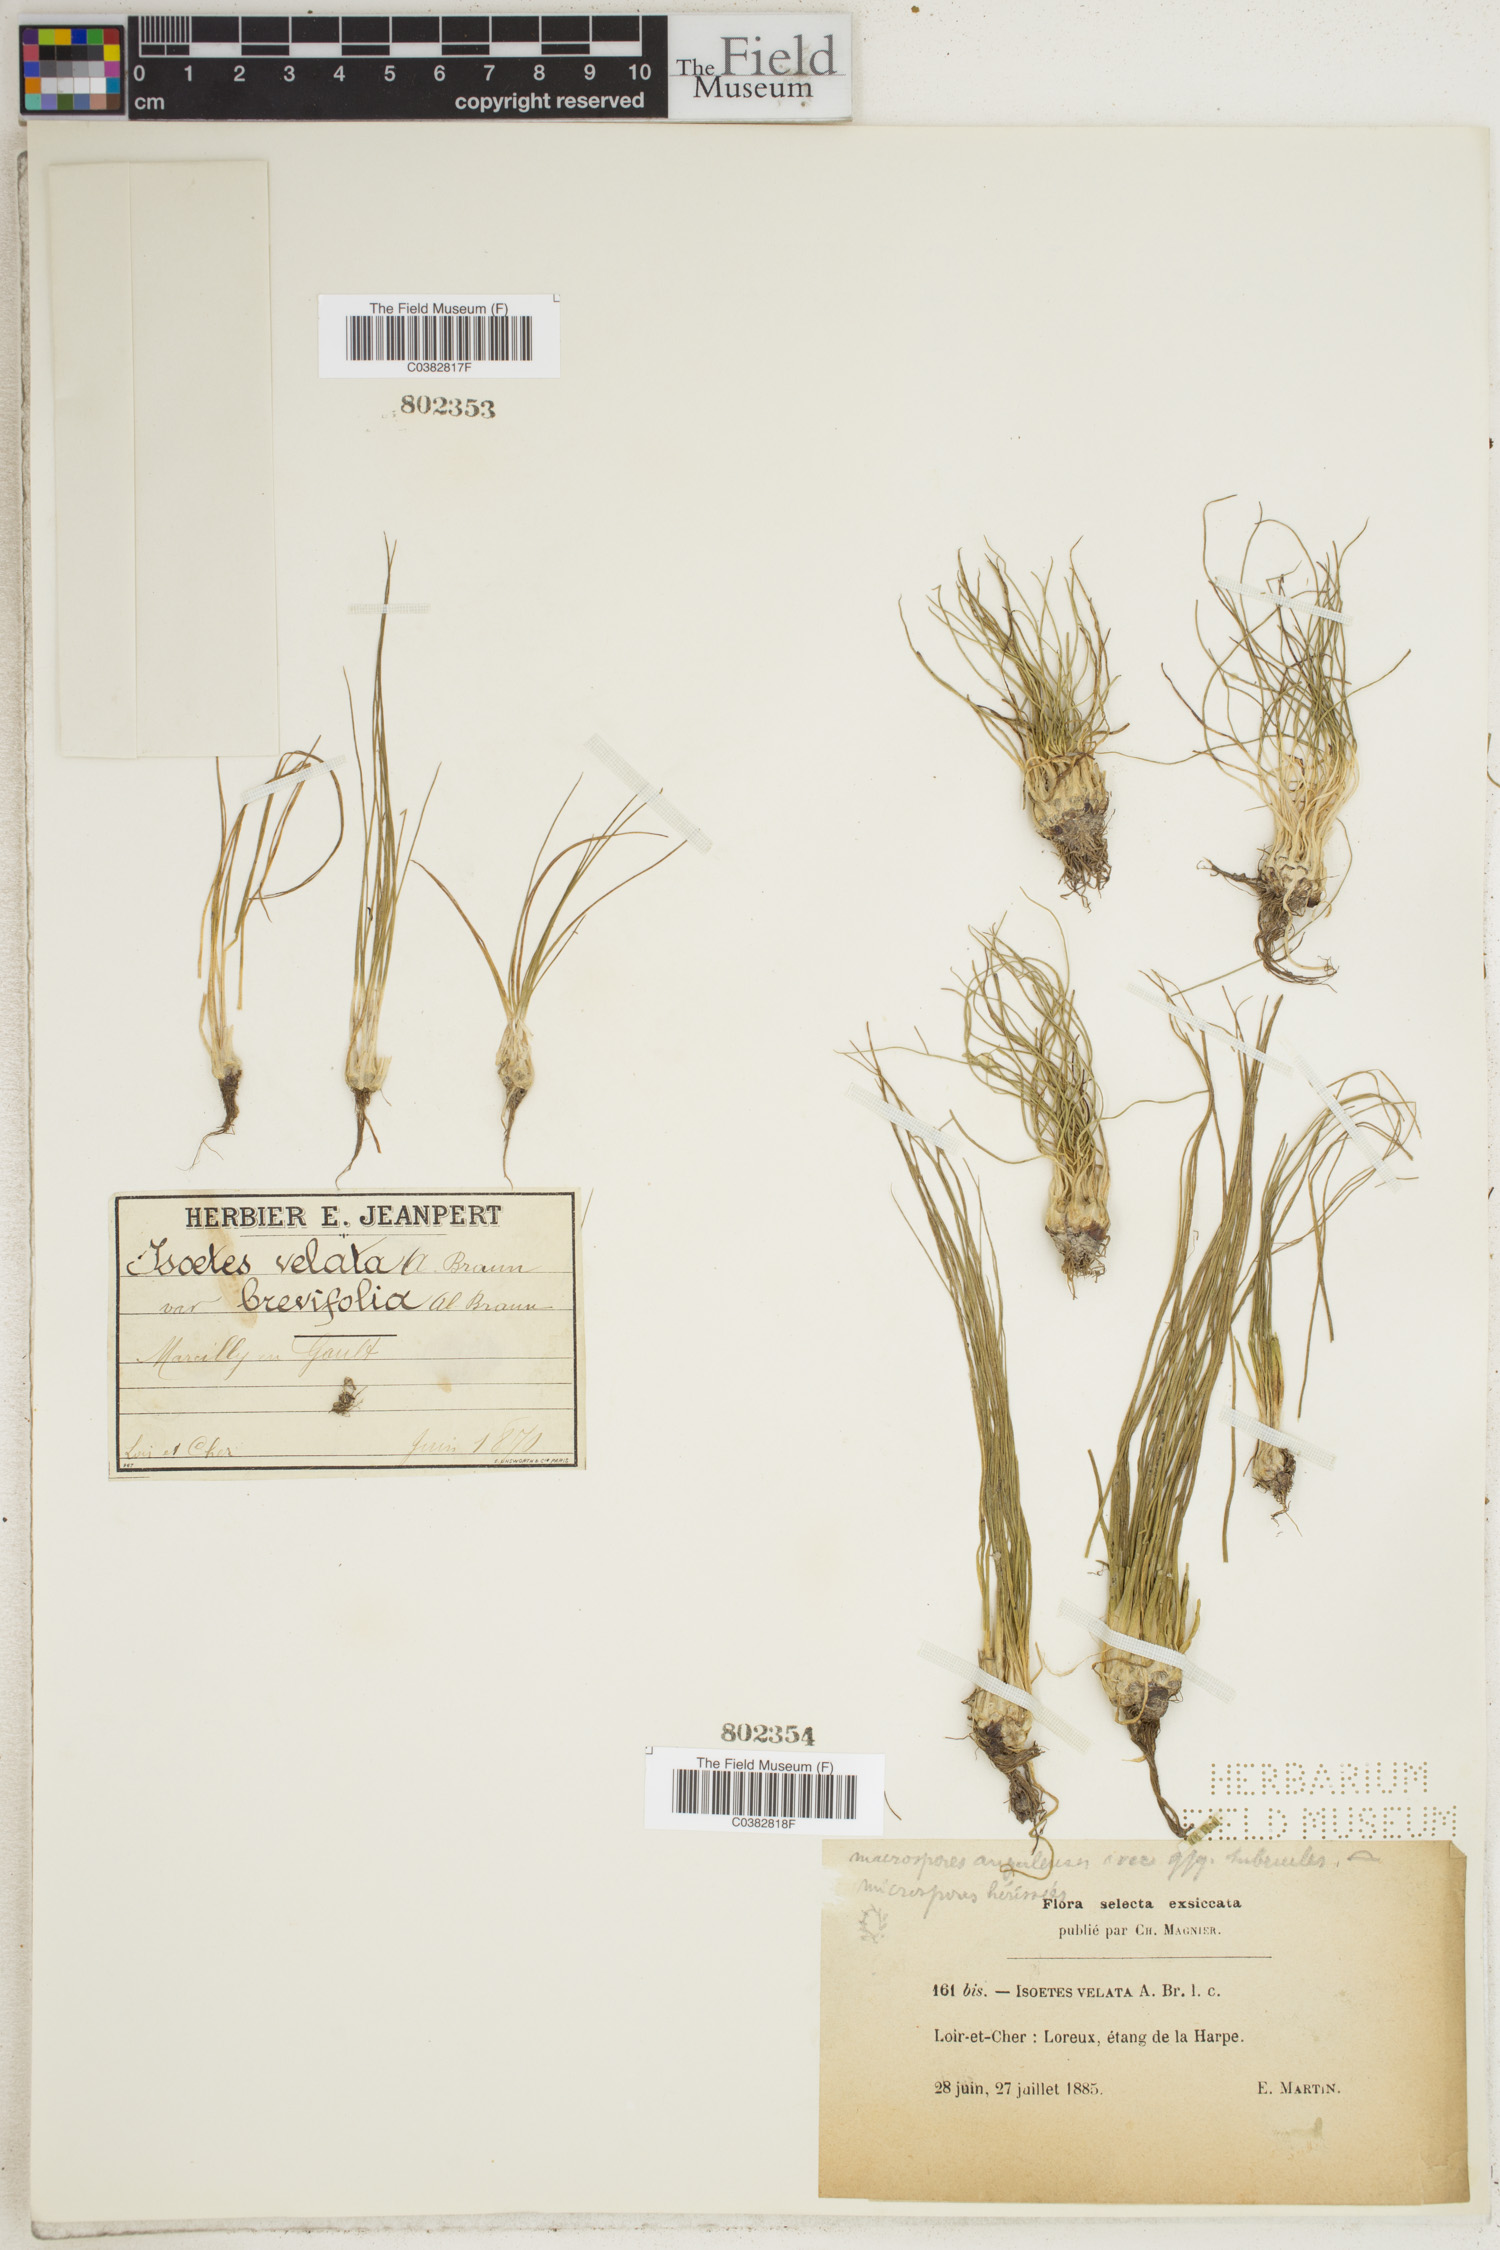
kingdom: Plantae
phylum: Tracheophyta
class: Lycopodiopsida
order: Isoetales
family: Isoetaceae
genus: Isoetes
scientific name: Isoetes longissima
